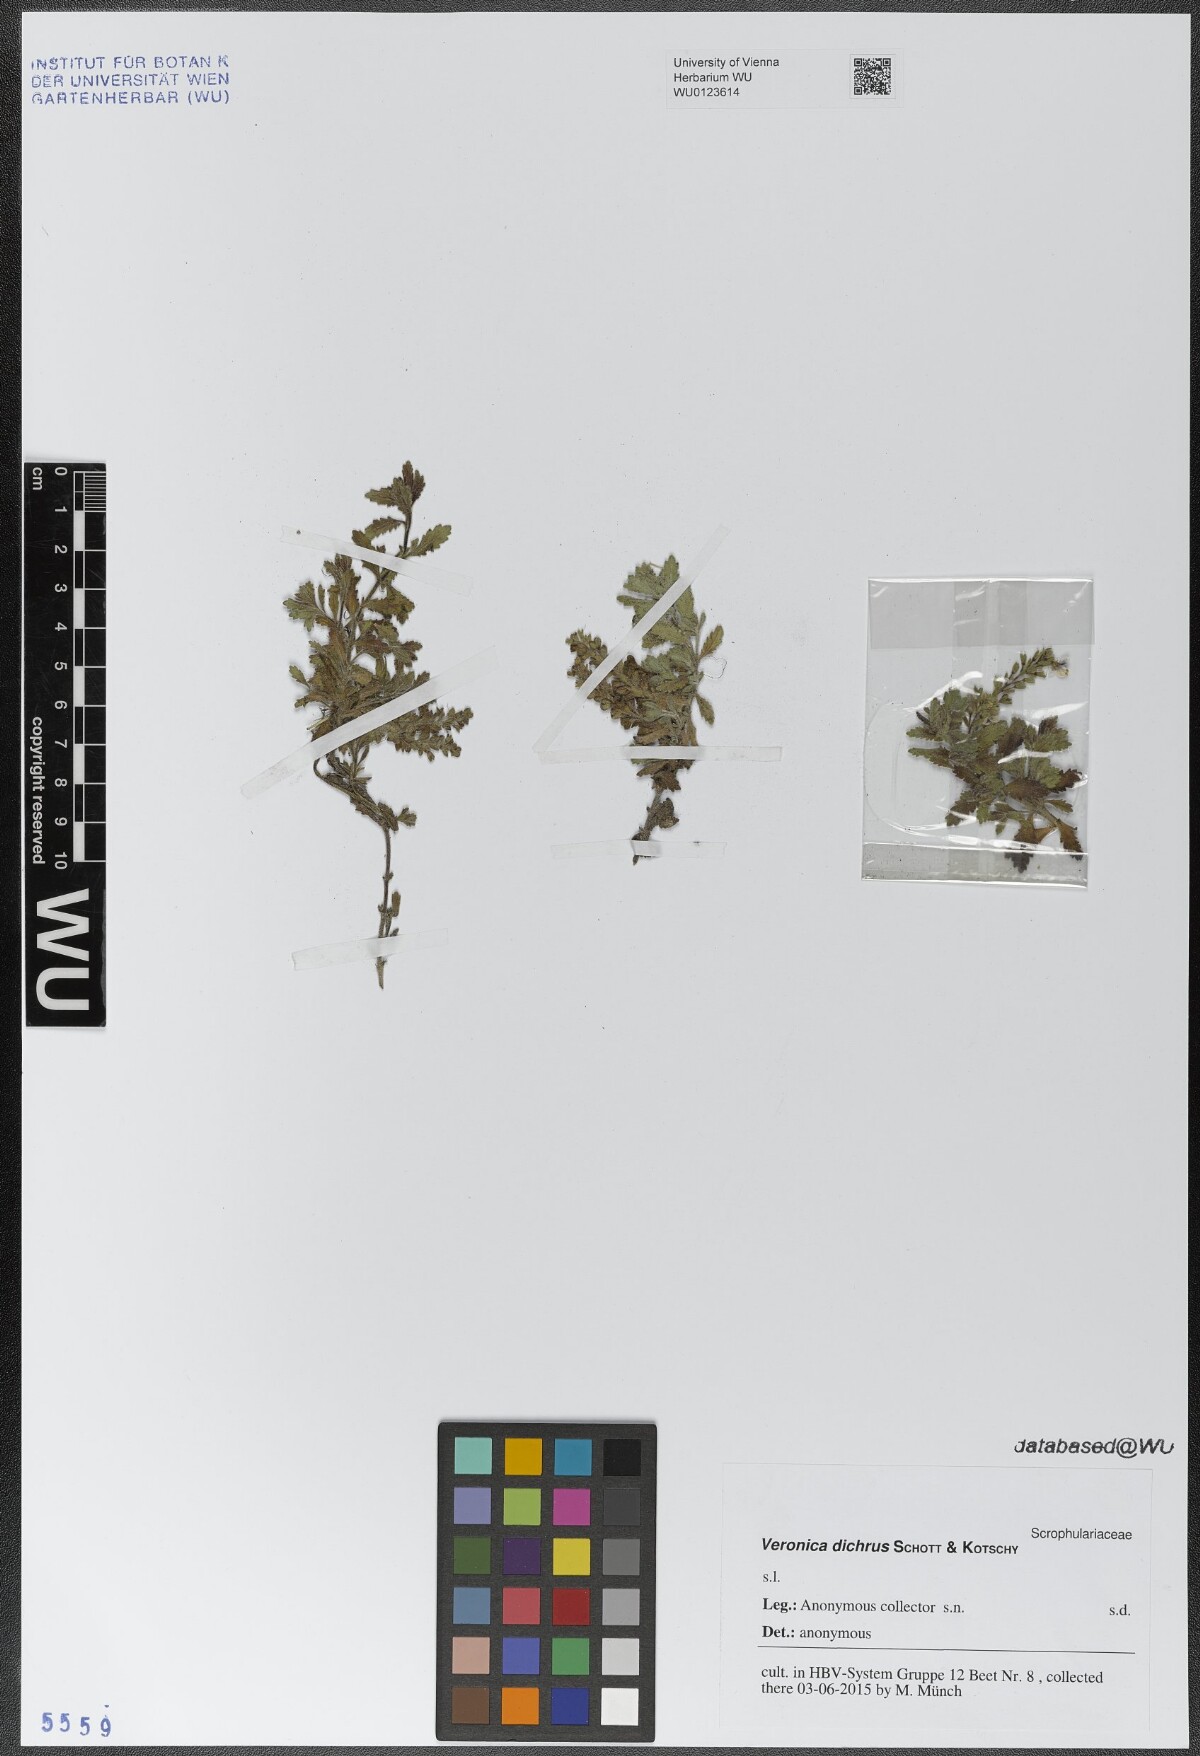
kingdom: Plantae
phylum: Tracheophyta
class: Magnoliopsida
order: Lamiales
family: Plantaginaceae
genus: Veronica
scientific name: Veronica dichrus
